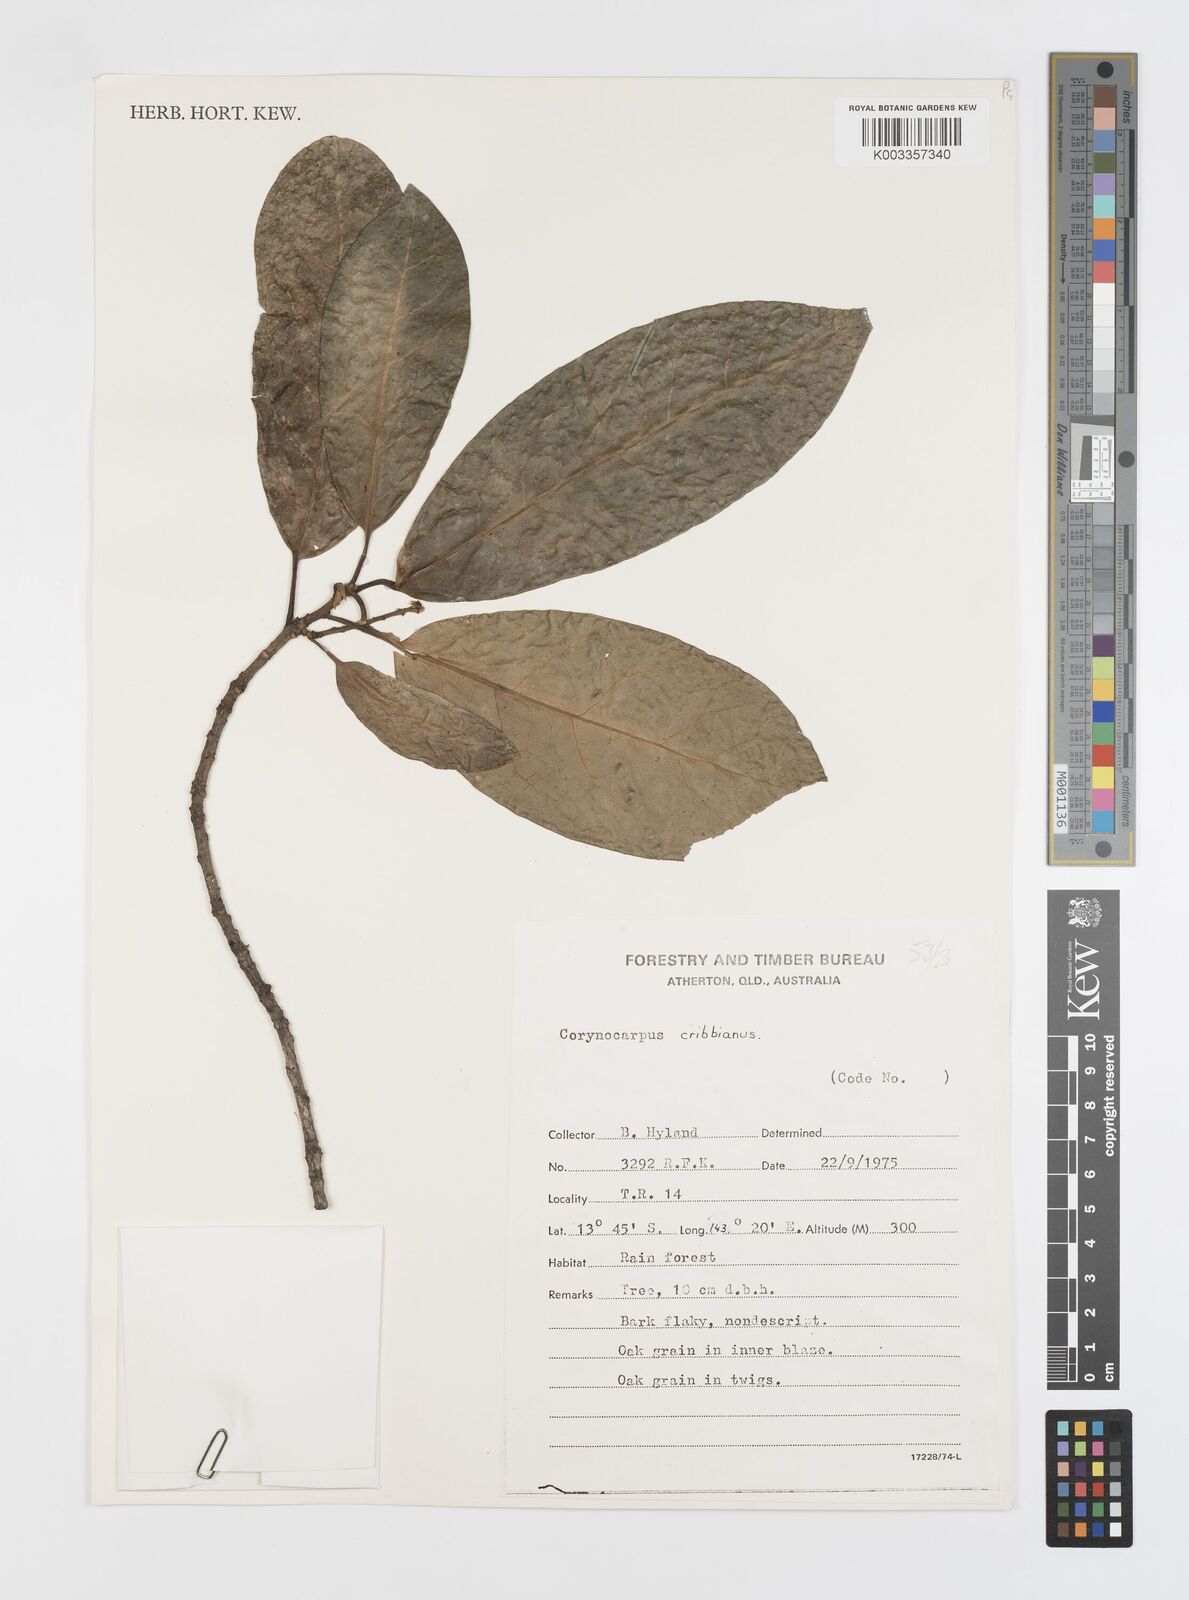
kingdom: Plantae
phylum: Tracheophyta
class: Magnoliopsida
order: Cucurbitales
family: Corynocarpaceae
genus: Corynocarpus
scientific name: Corynocarpus cribbianus
